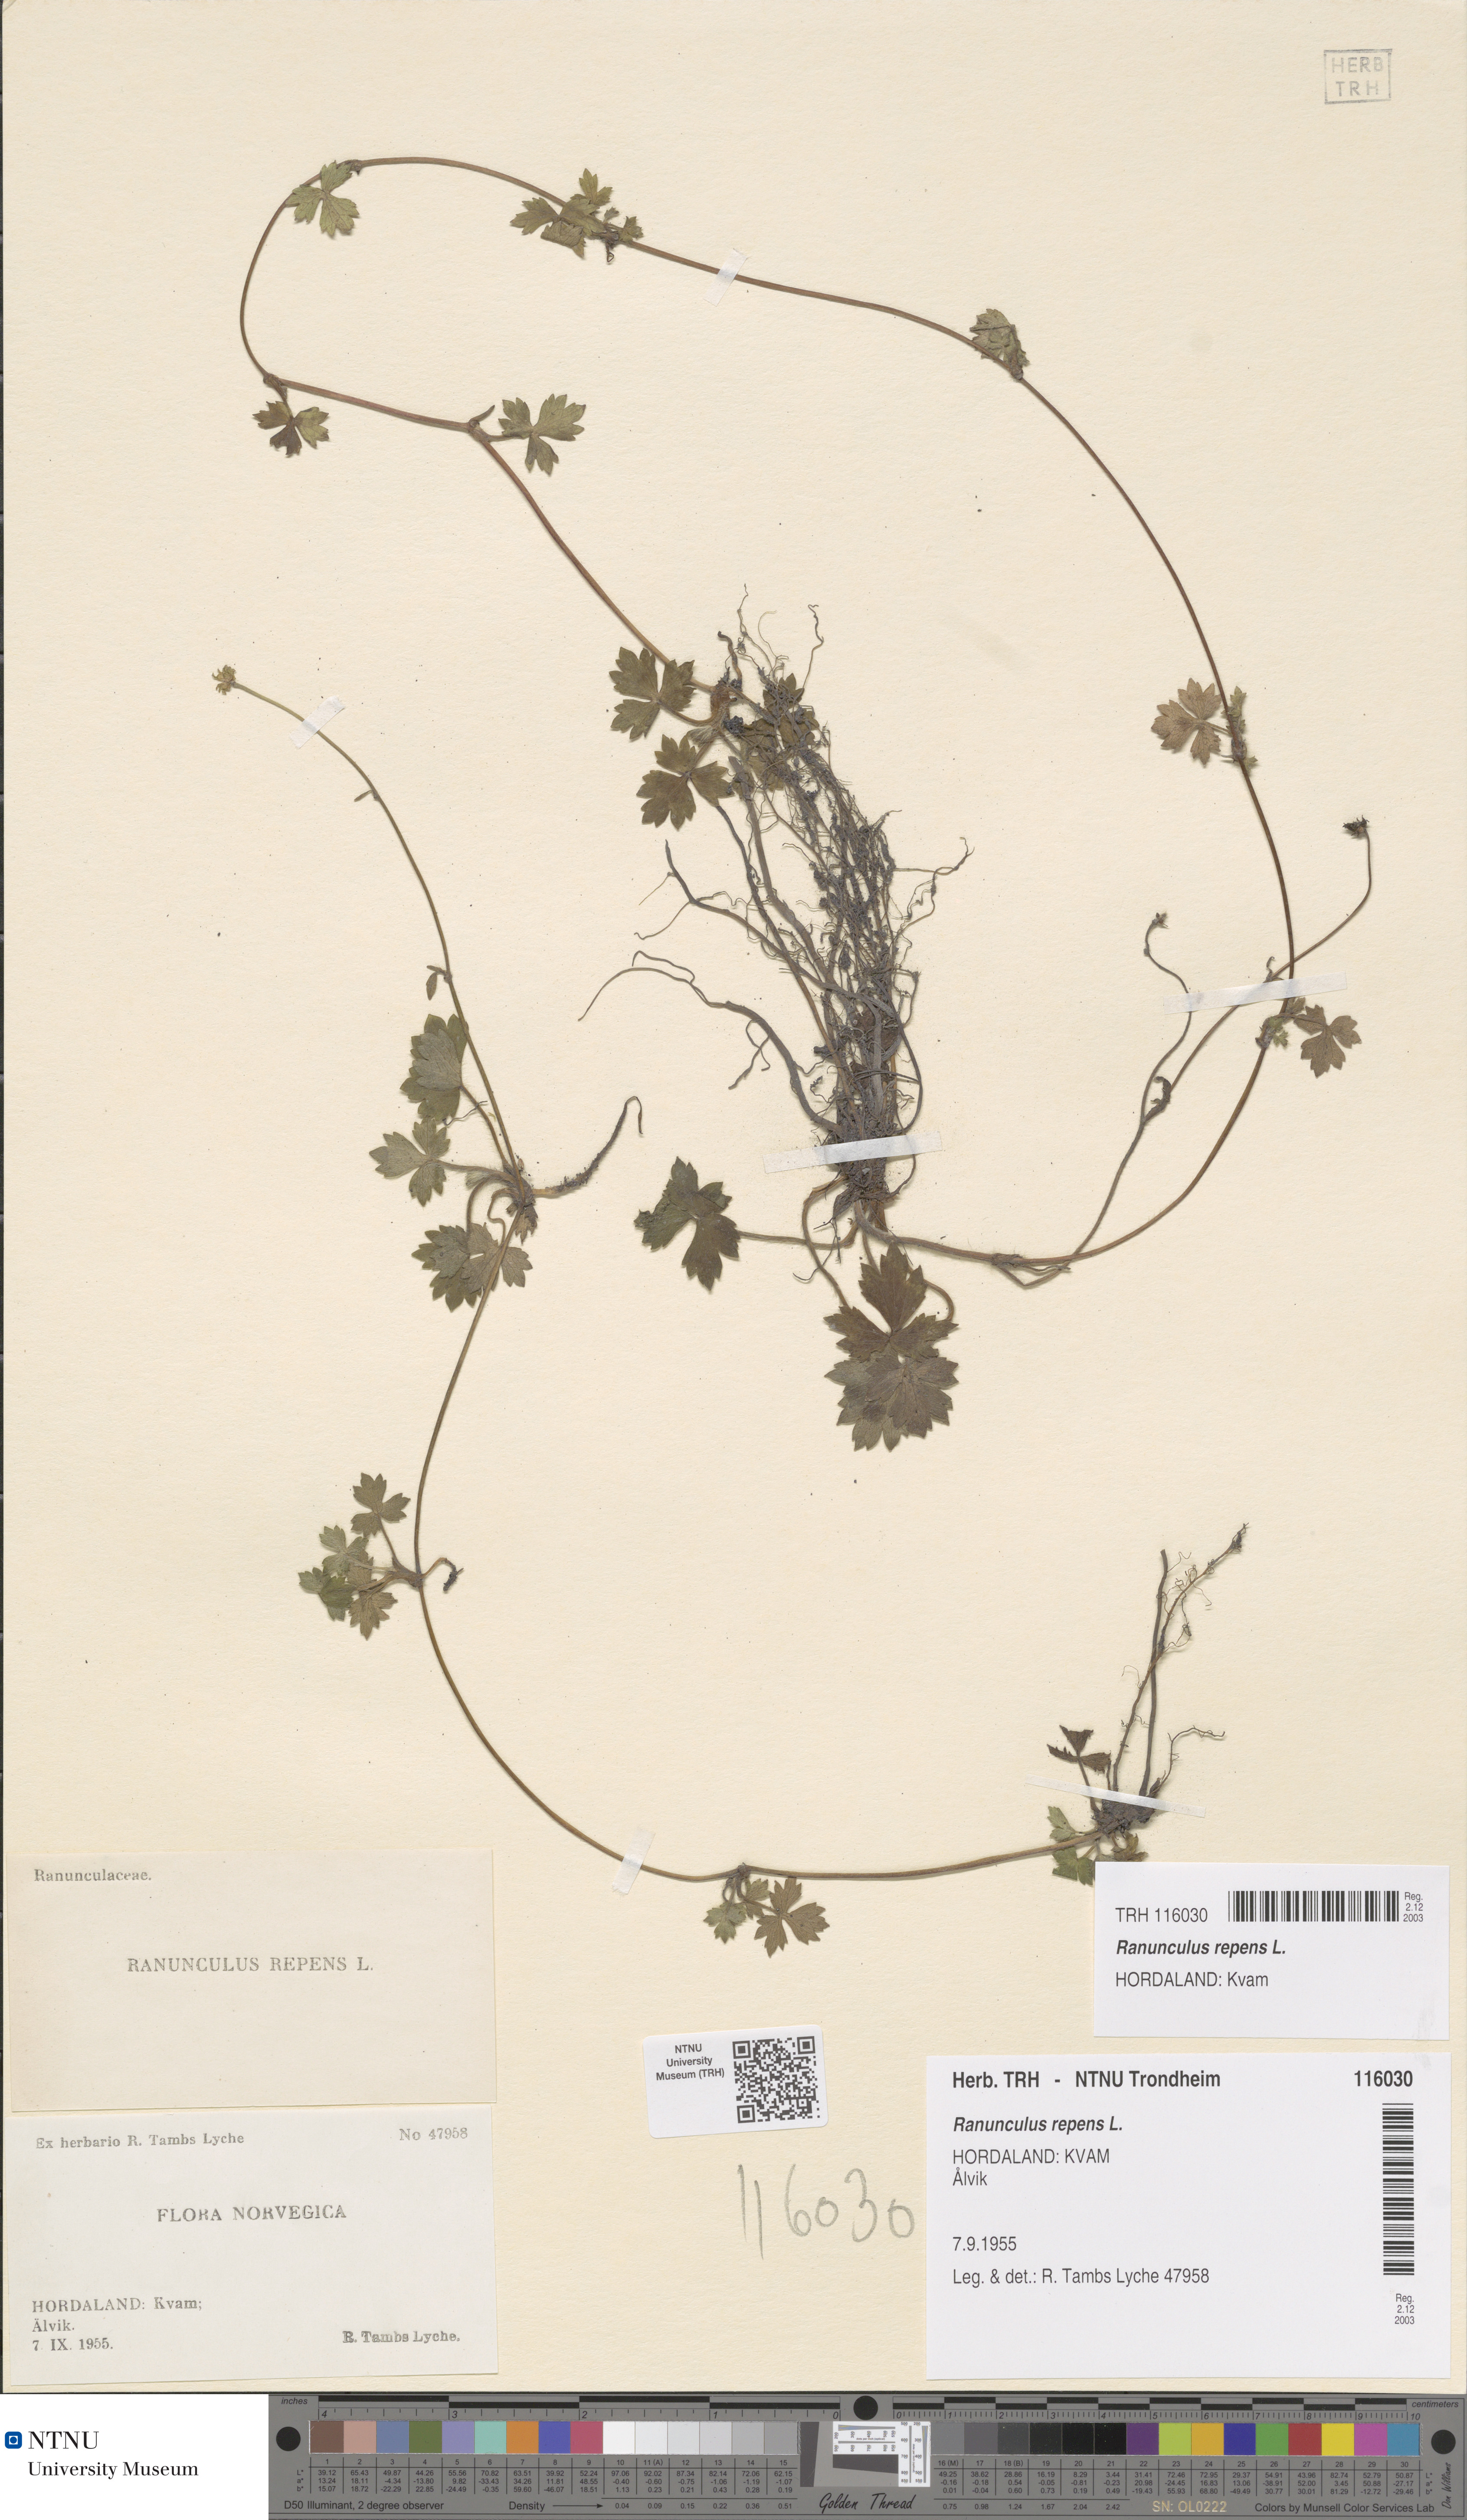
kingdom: Plantae
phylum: Tracheophyta
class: Magnoliopsida
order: Ranunculales
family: Ranunculaceae
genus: Ranunculus
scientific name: Ranunculus repens
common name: Creeping buttercup
